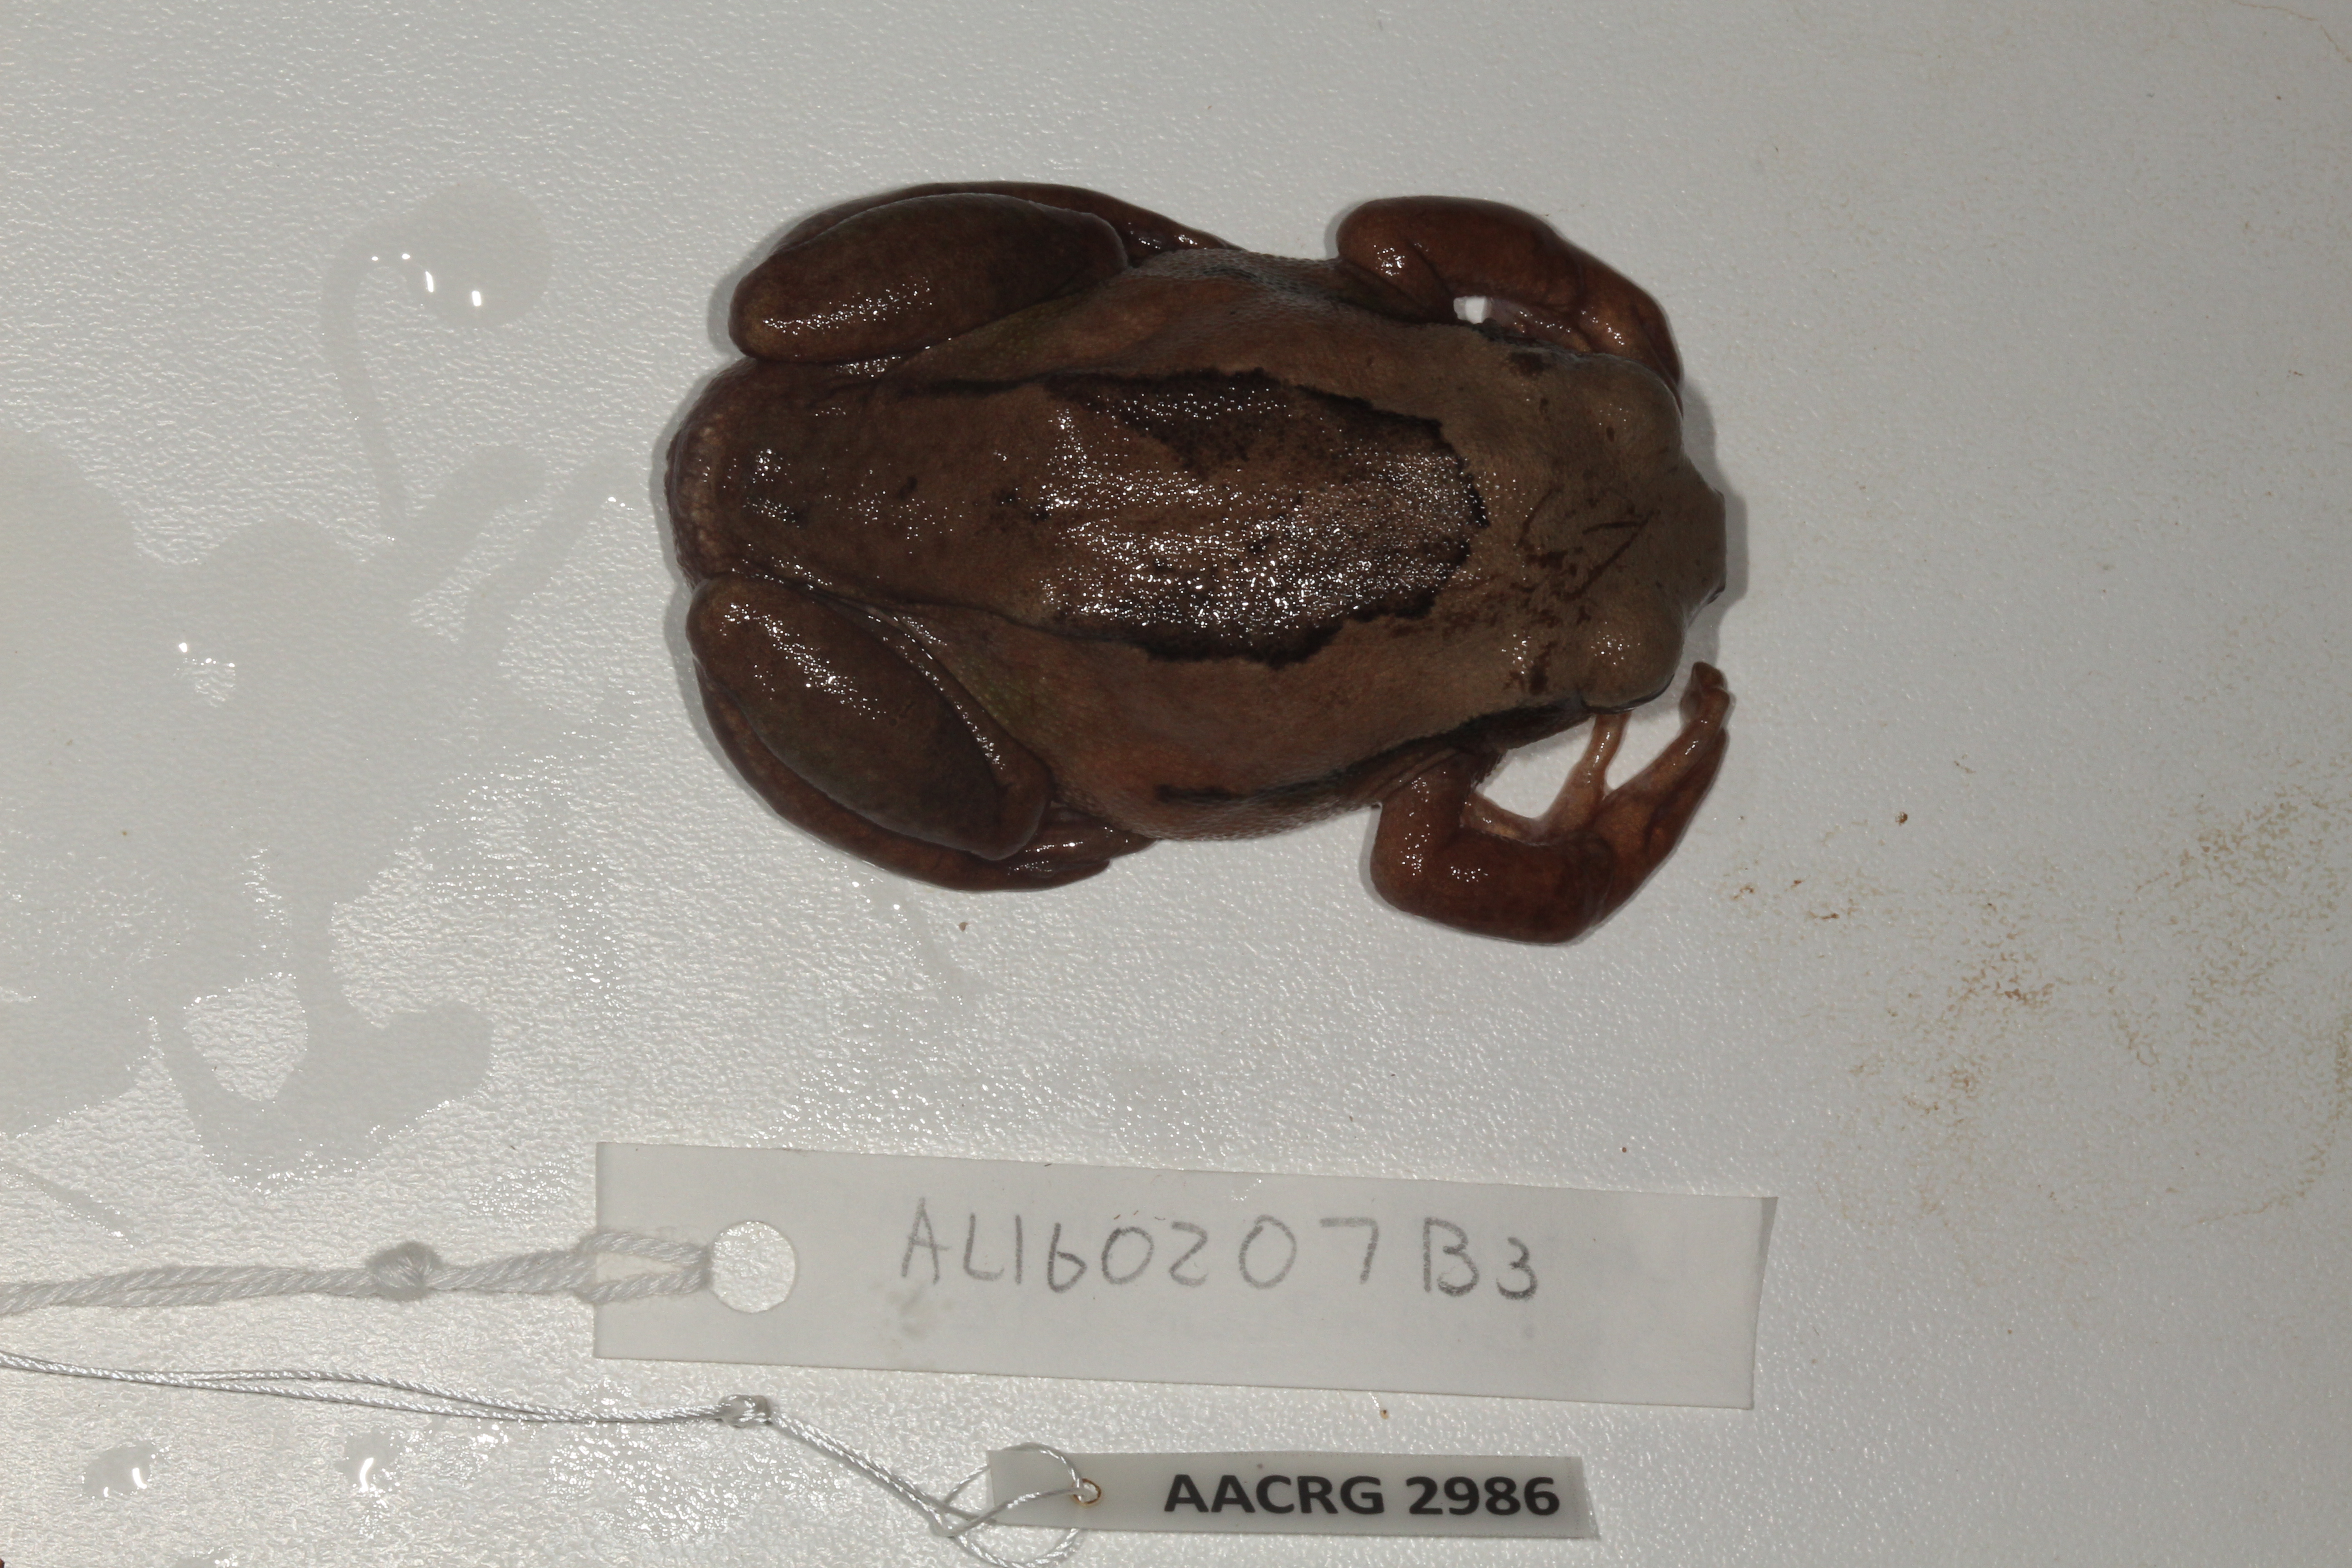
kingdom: Animalia
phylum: Chordata
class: Amphibia
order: Anura
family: Arthroleptidae
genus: Leptopelis
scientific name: Leptopelis mossambicus
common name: Mozambique tree frog
